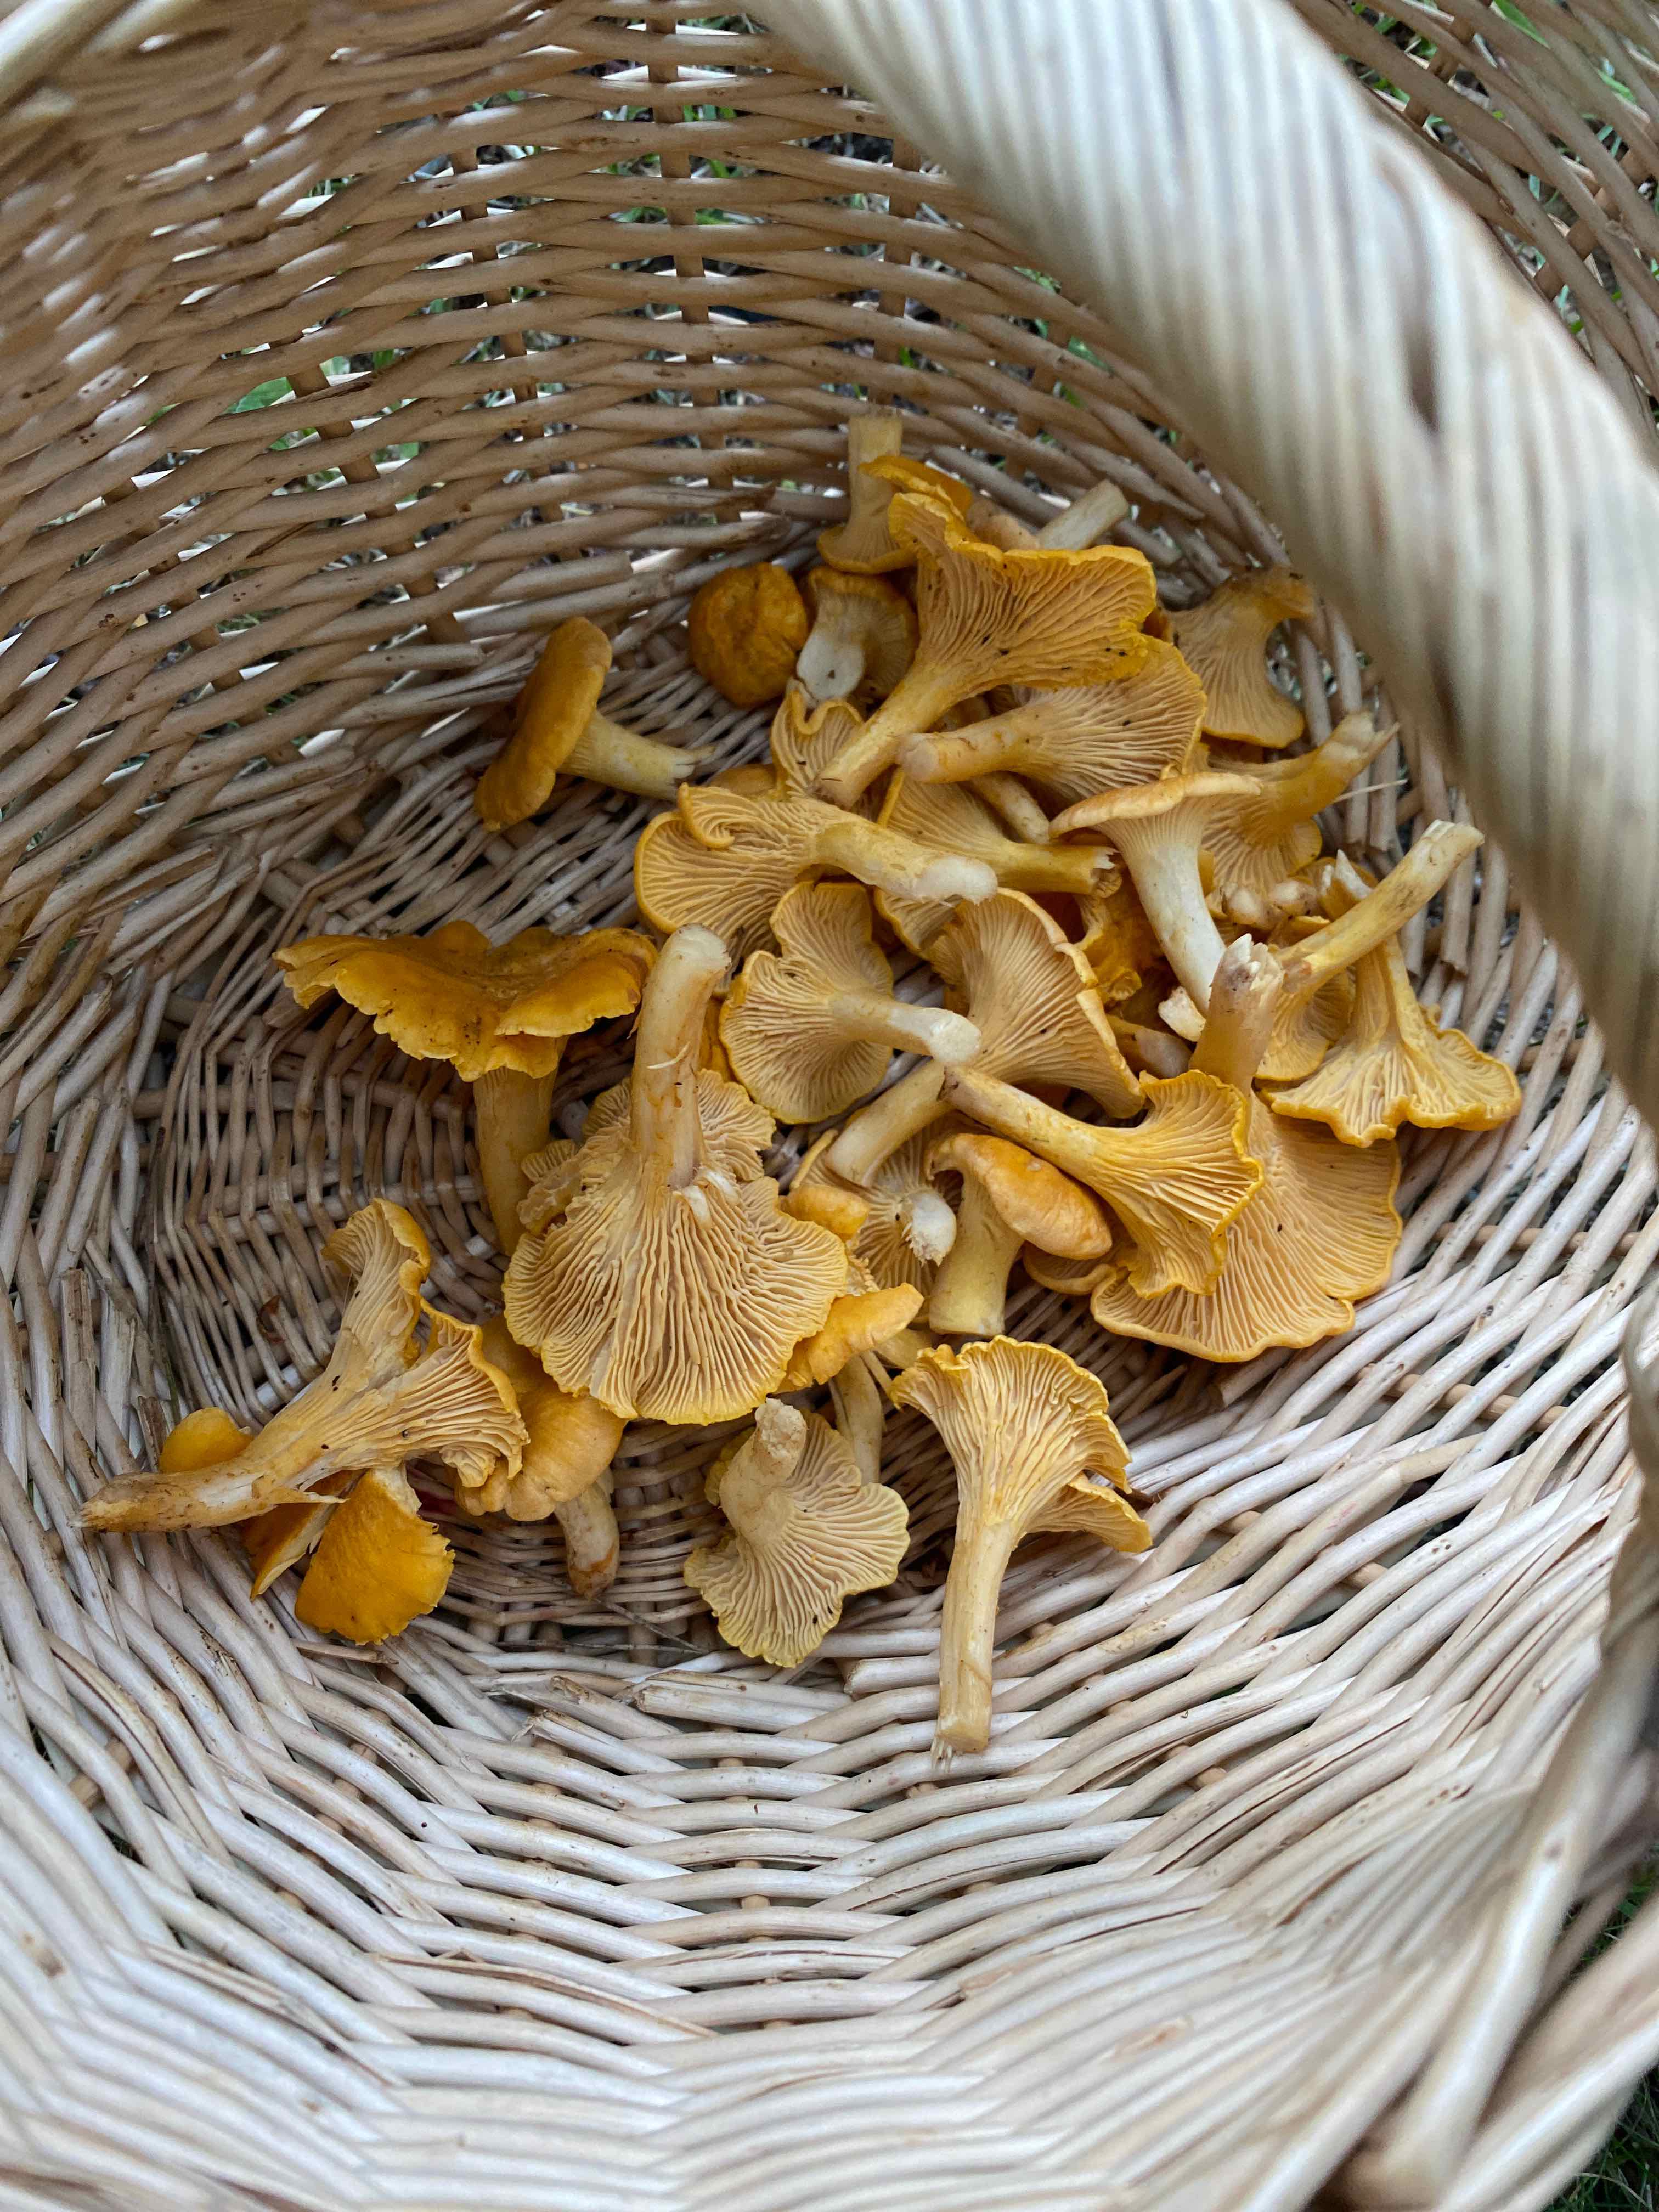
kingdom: Fungi
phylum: Basidiomycota
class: Agaricomycetes
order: Cantharellales
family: Hydnaceae
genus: Cantharellus
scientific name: Cantharellus cibarius
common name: almindelig kantarel
